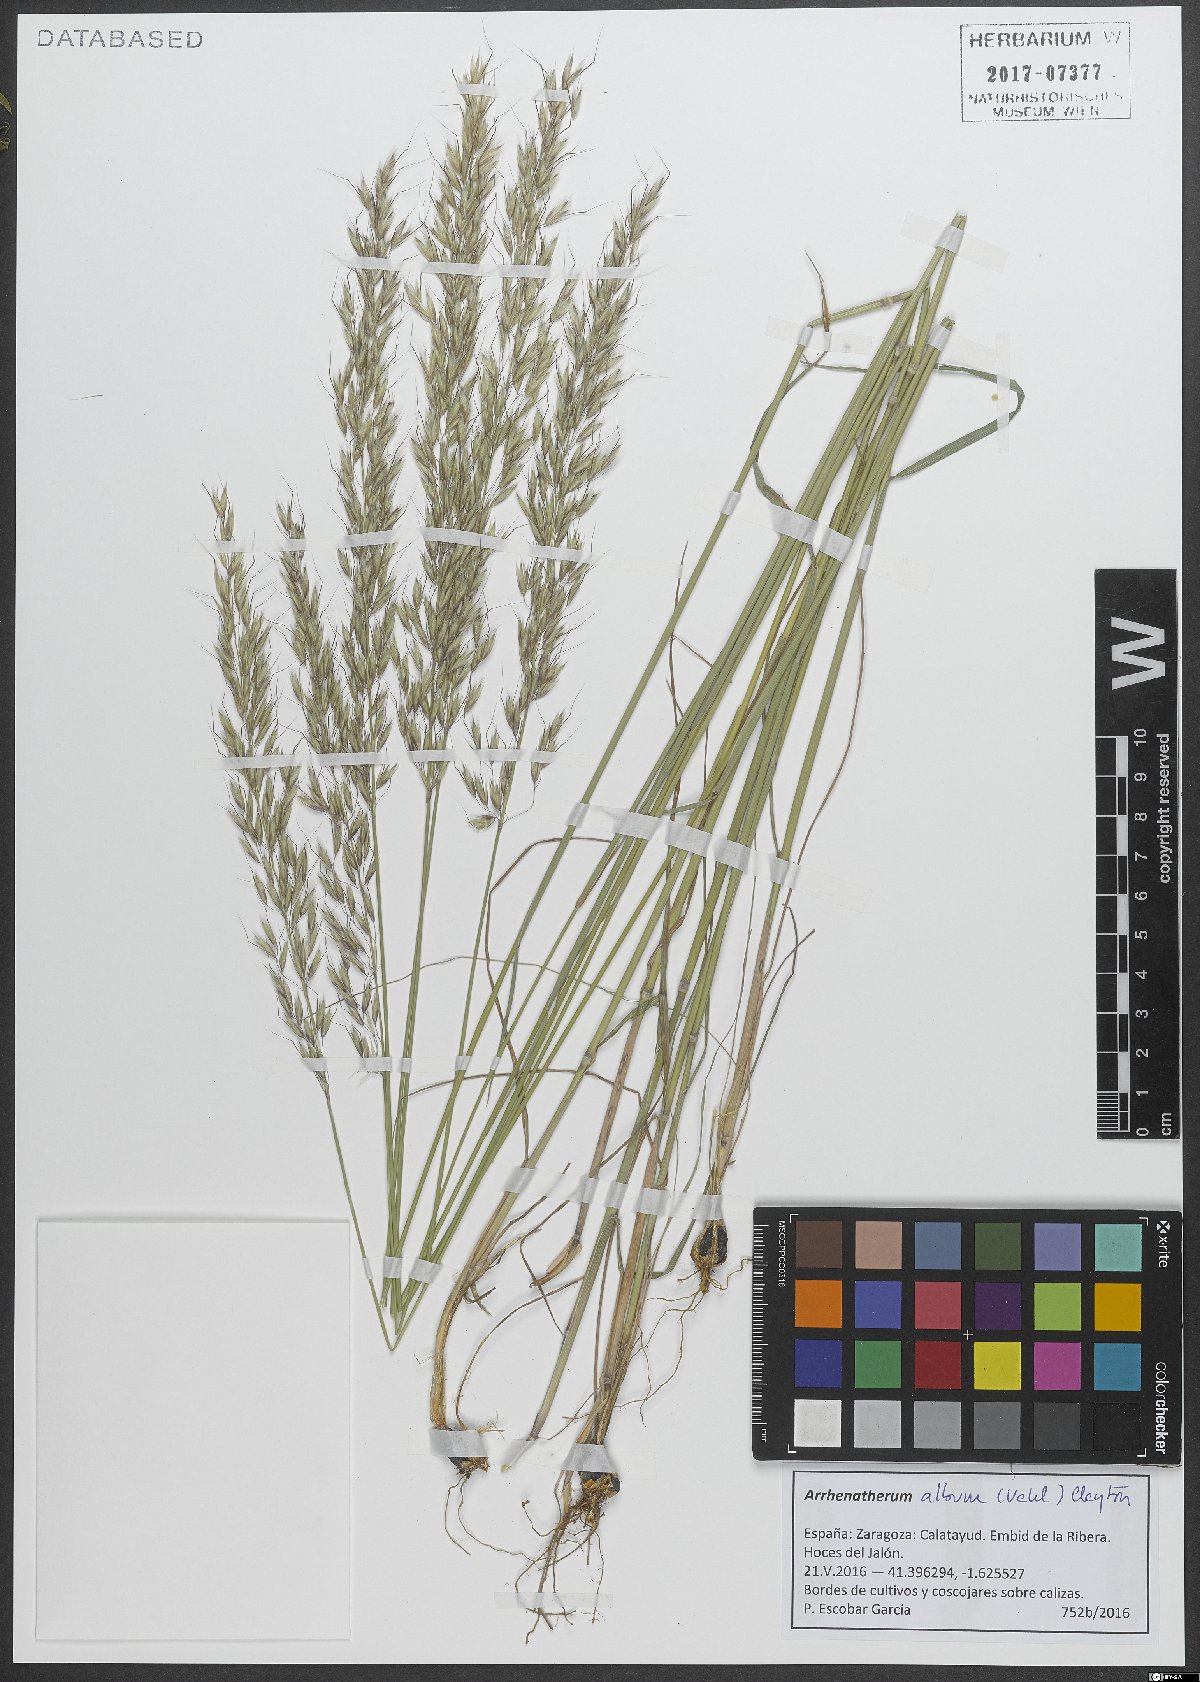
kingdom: Plantae
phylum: Tracheophyta
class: Liliopsida
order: Poales
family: Poaceae
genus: Arrhenatherum
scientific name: Arrhenatherum album
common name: Tall oat grass
